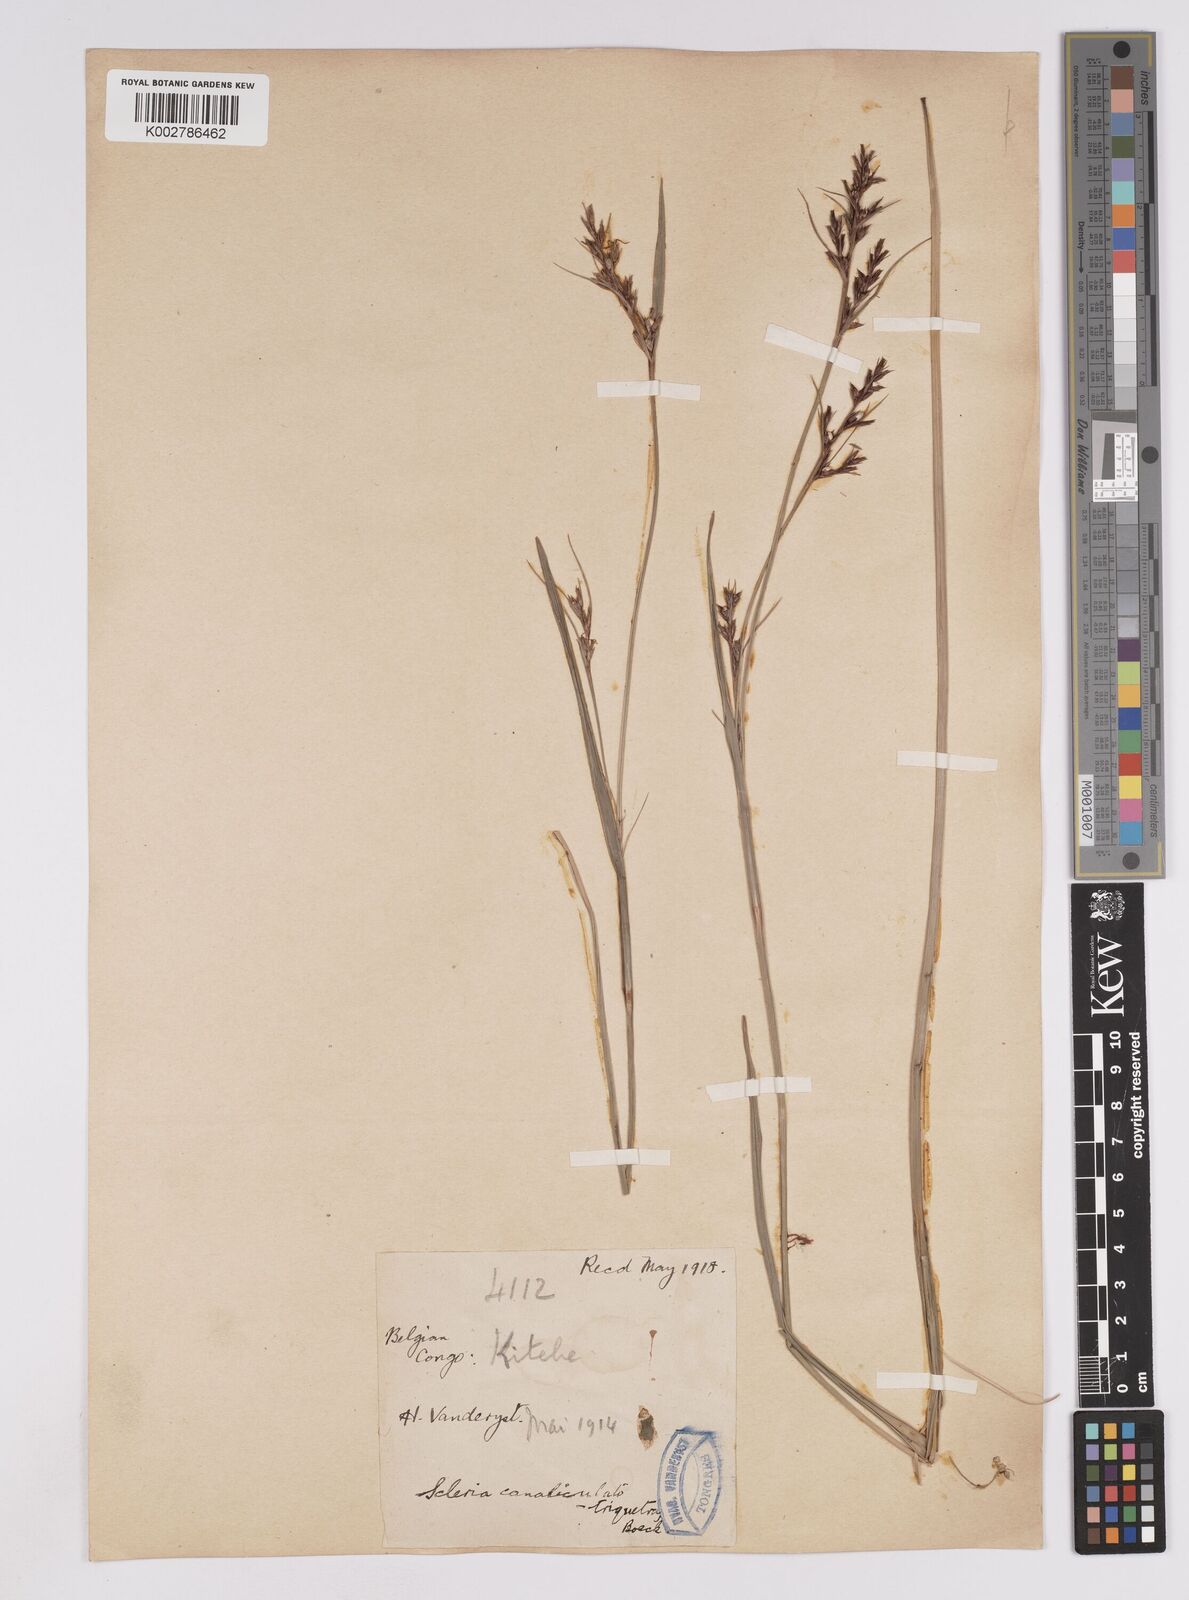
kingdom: Plantae
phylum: Tracheophyta
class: Liliopsida
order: Poales
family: Cyperaceae
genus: Scleria
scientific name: Scleria lagoensis
